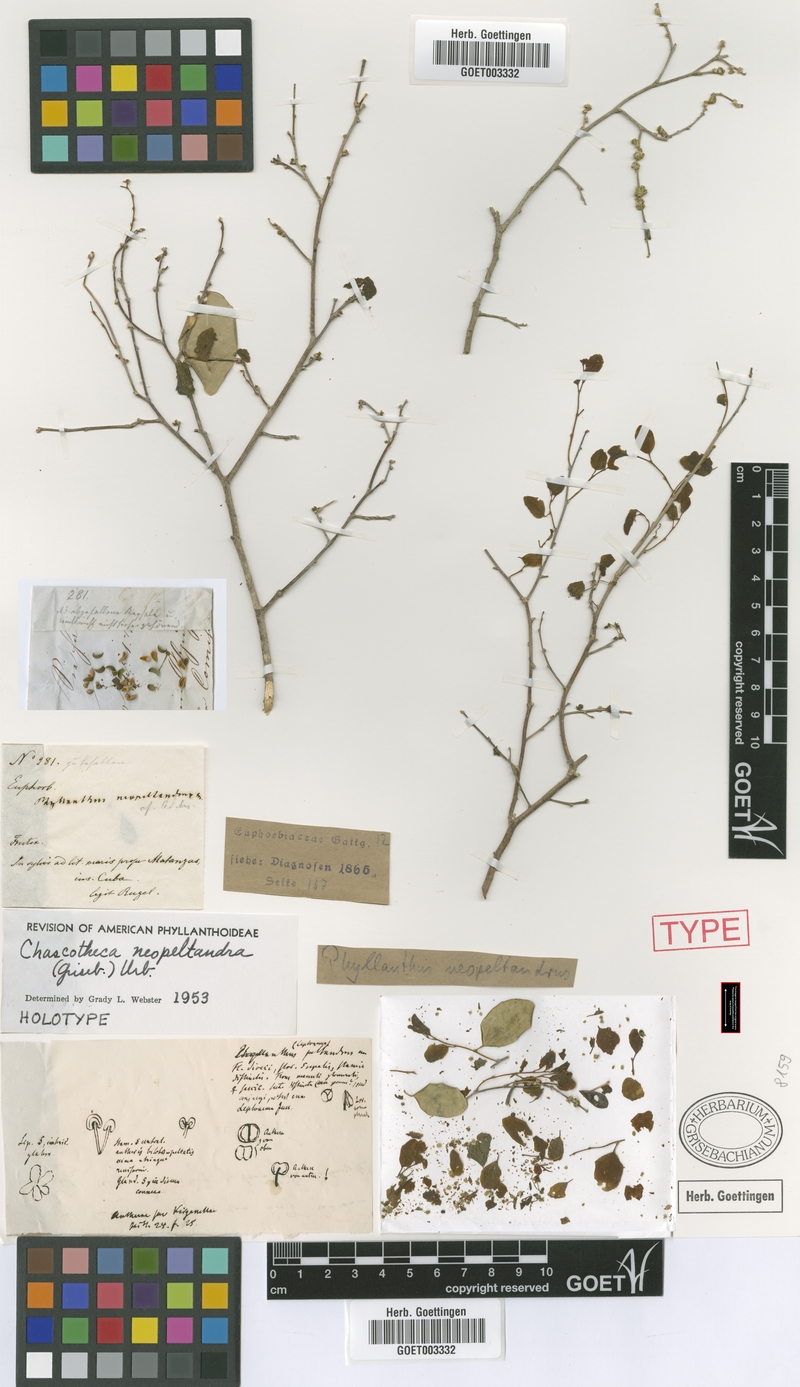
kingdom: Plantae
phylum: Tracheophyta
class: Magnoliopsida
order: Malpighiales
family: Phyllanthaceae
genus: Chascotheca
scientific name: Chascotheca neopeltandra
